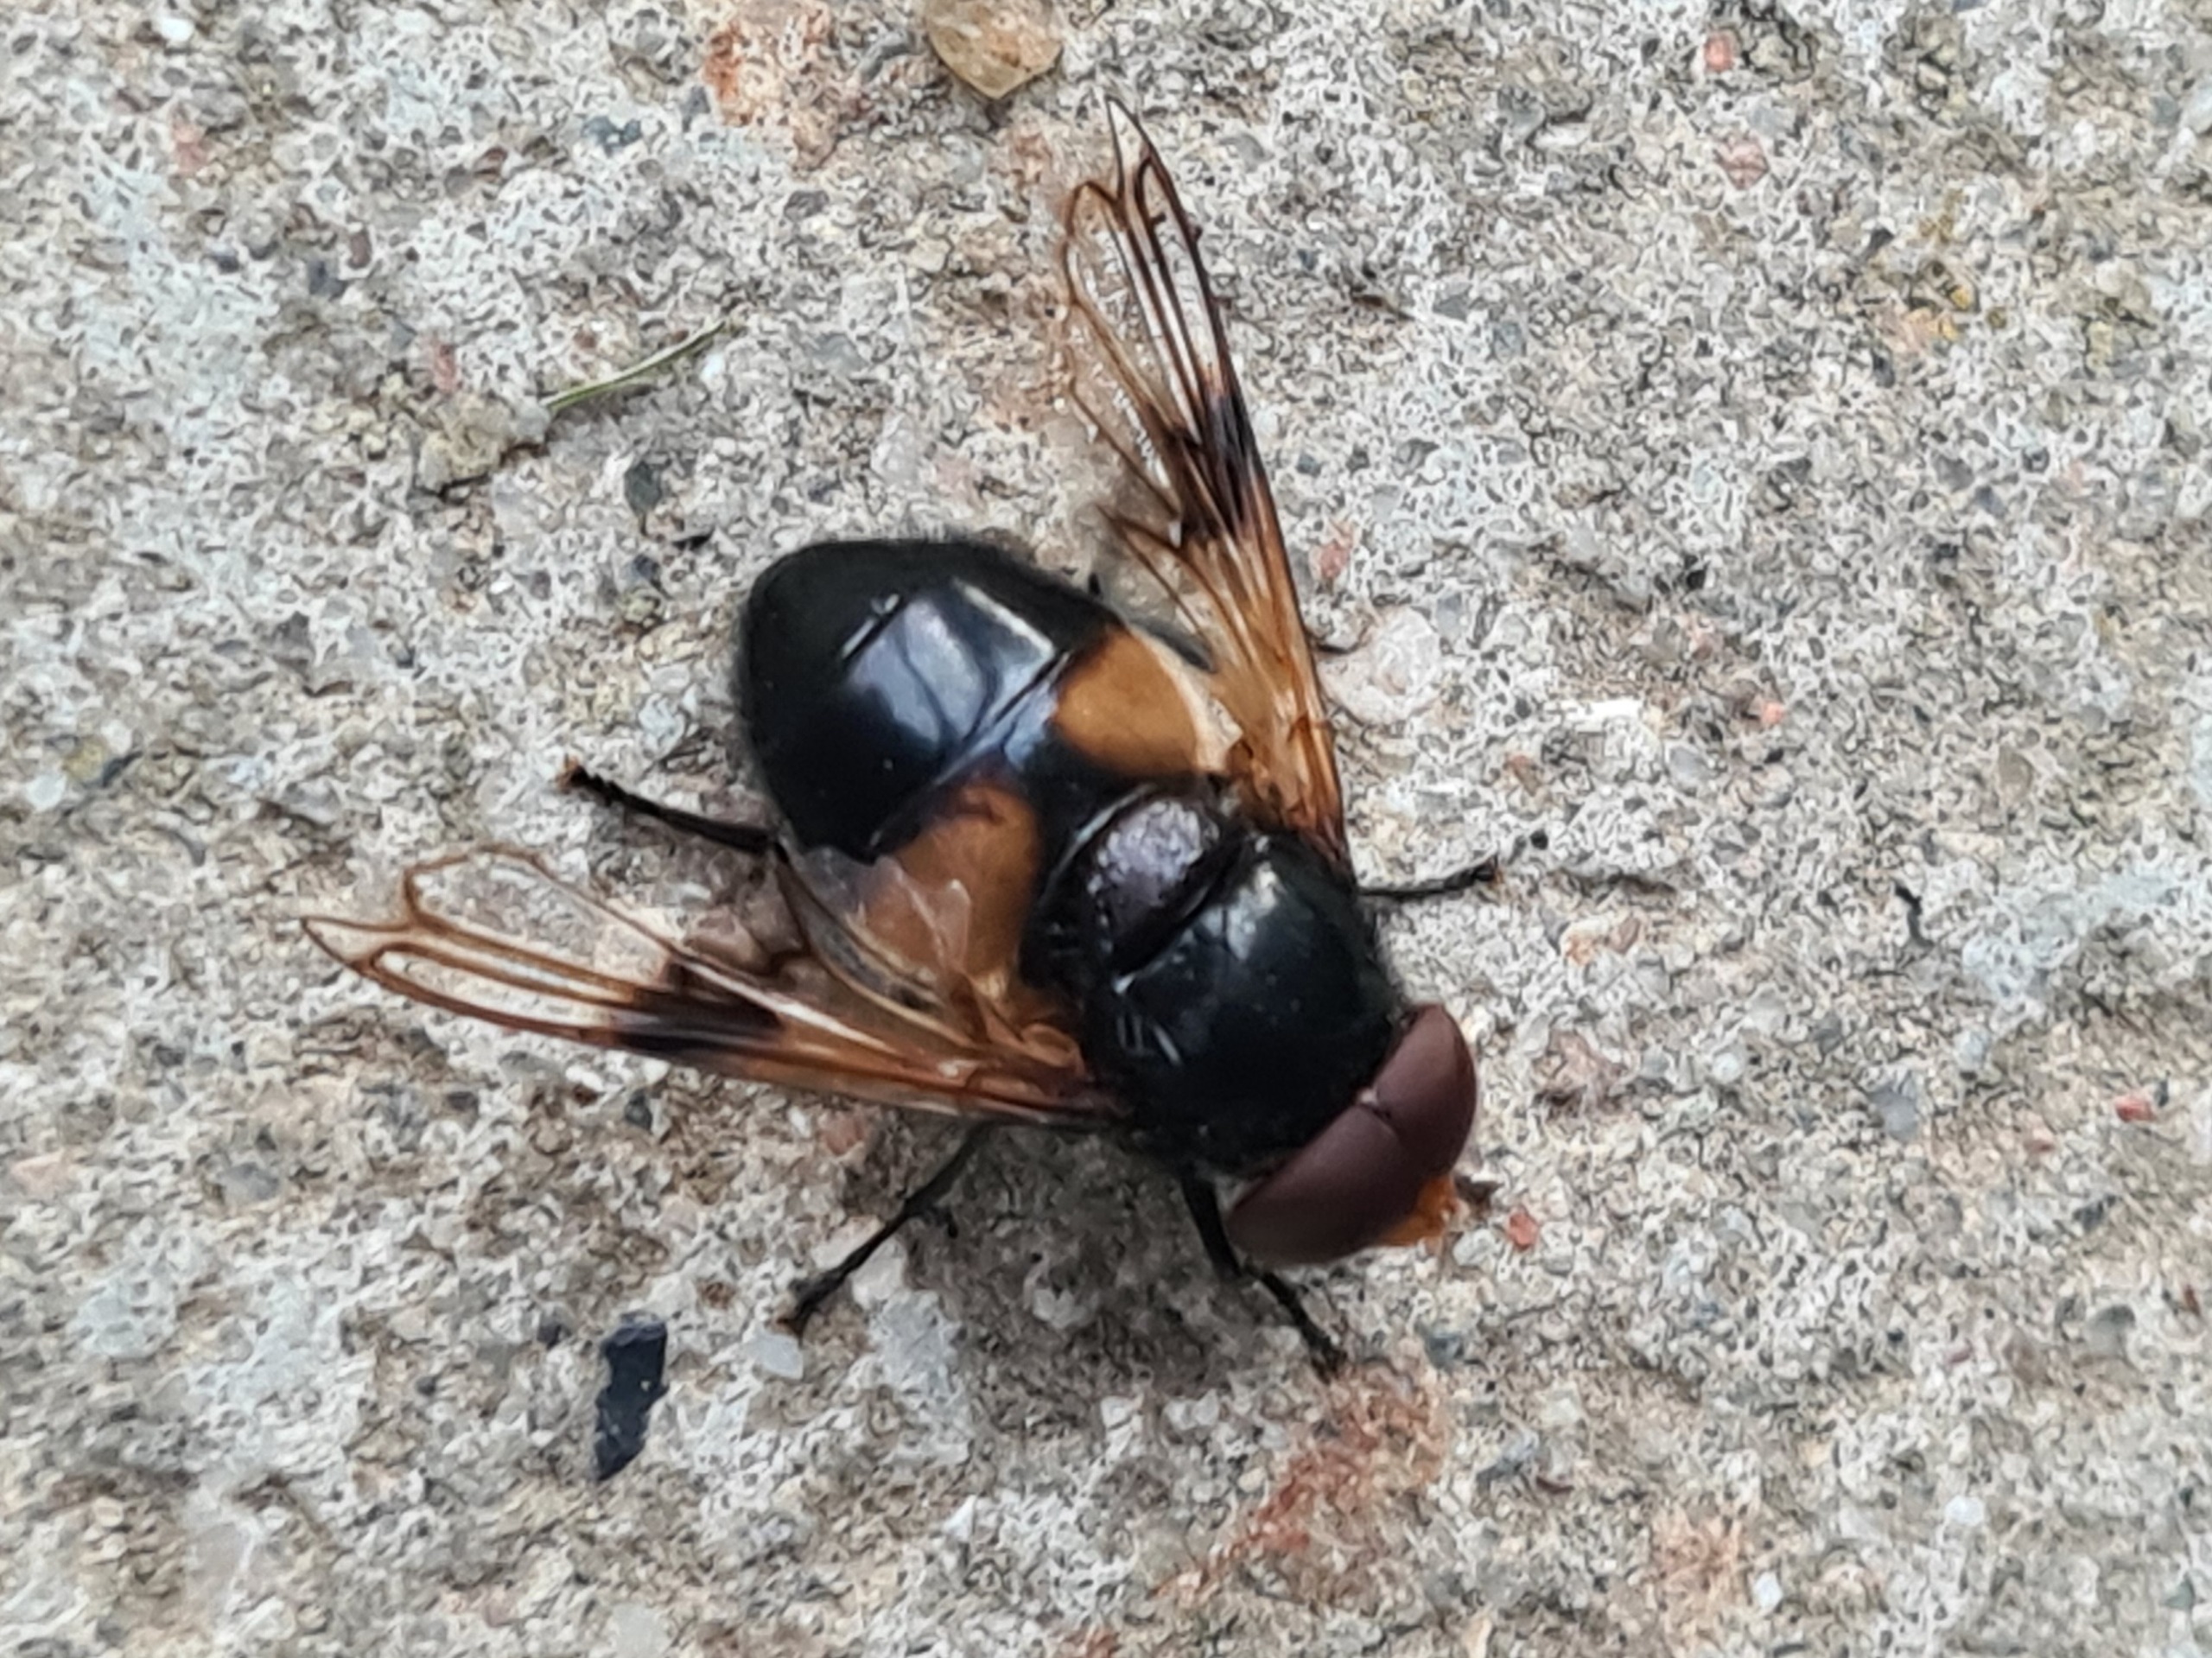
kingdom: Animalia
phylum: Arthropoda
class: Insecta
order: Diptera
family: Syrphidae
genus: Volucella
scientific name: Volucella pellucens
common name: Hvidbåndet humlesvirreflue
